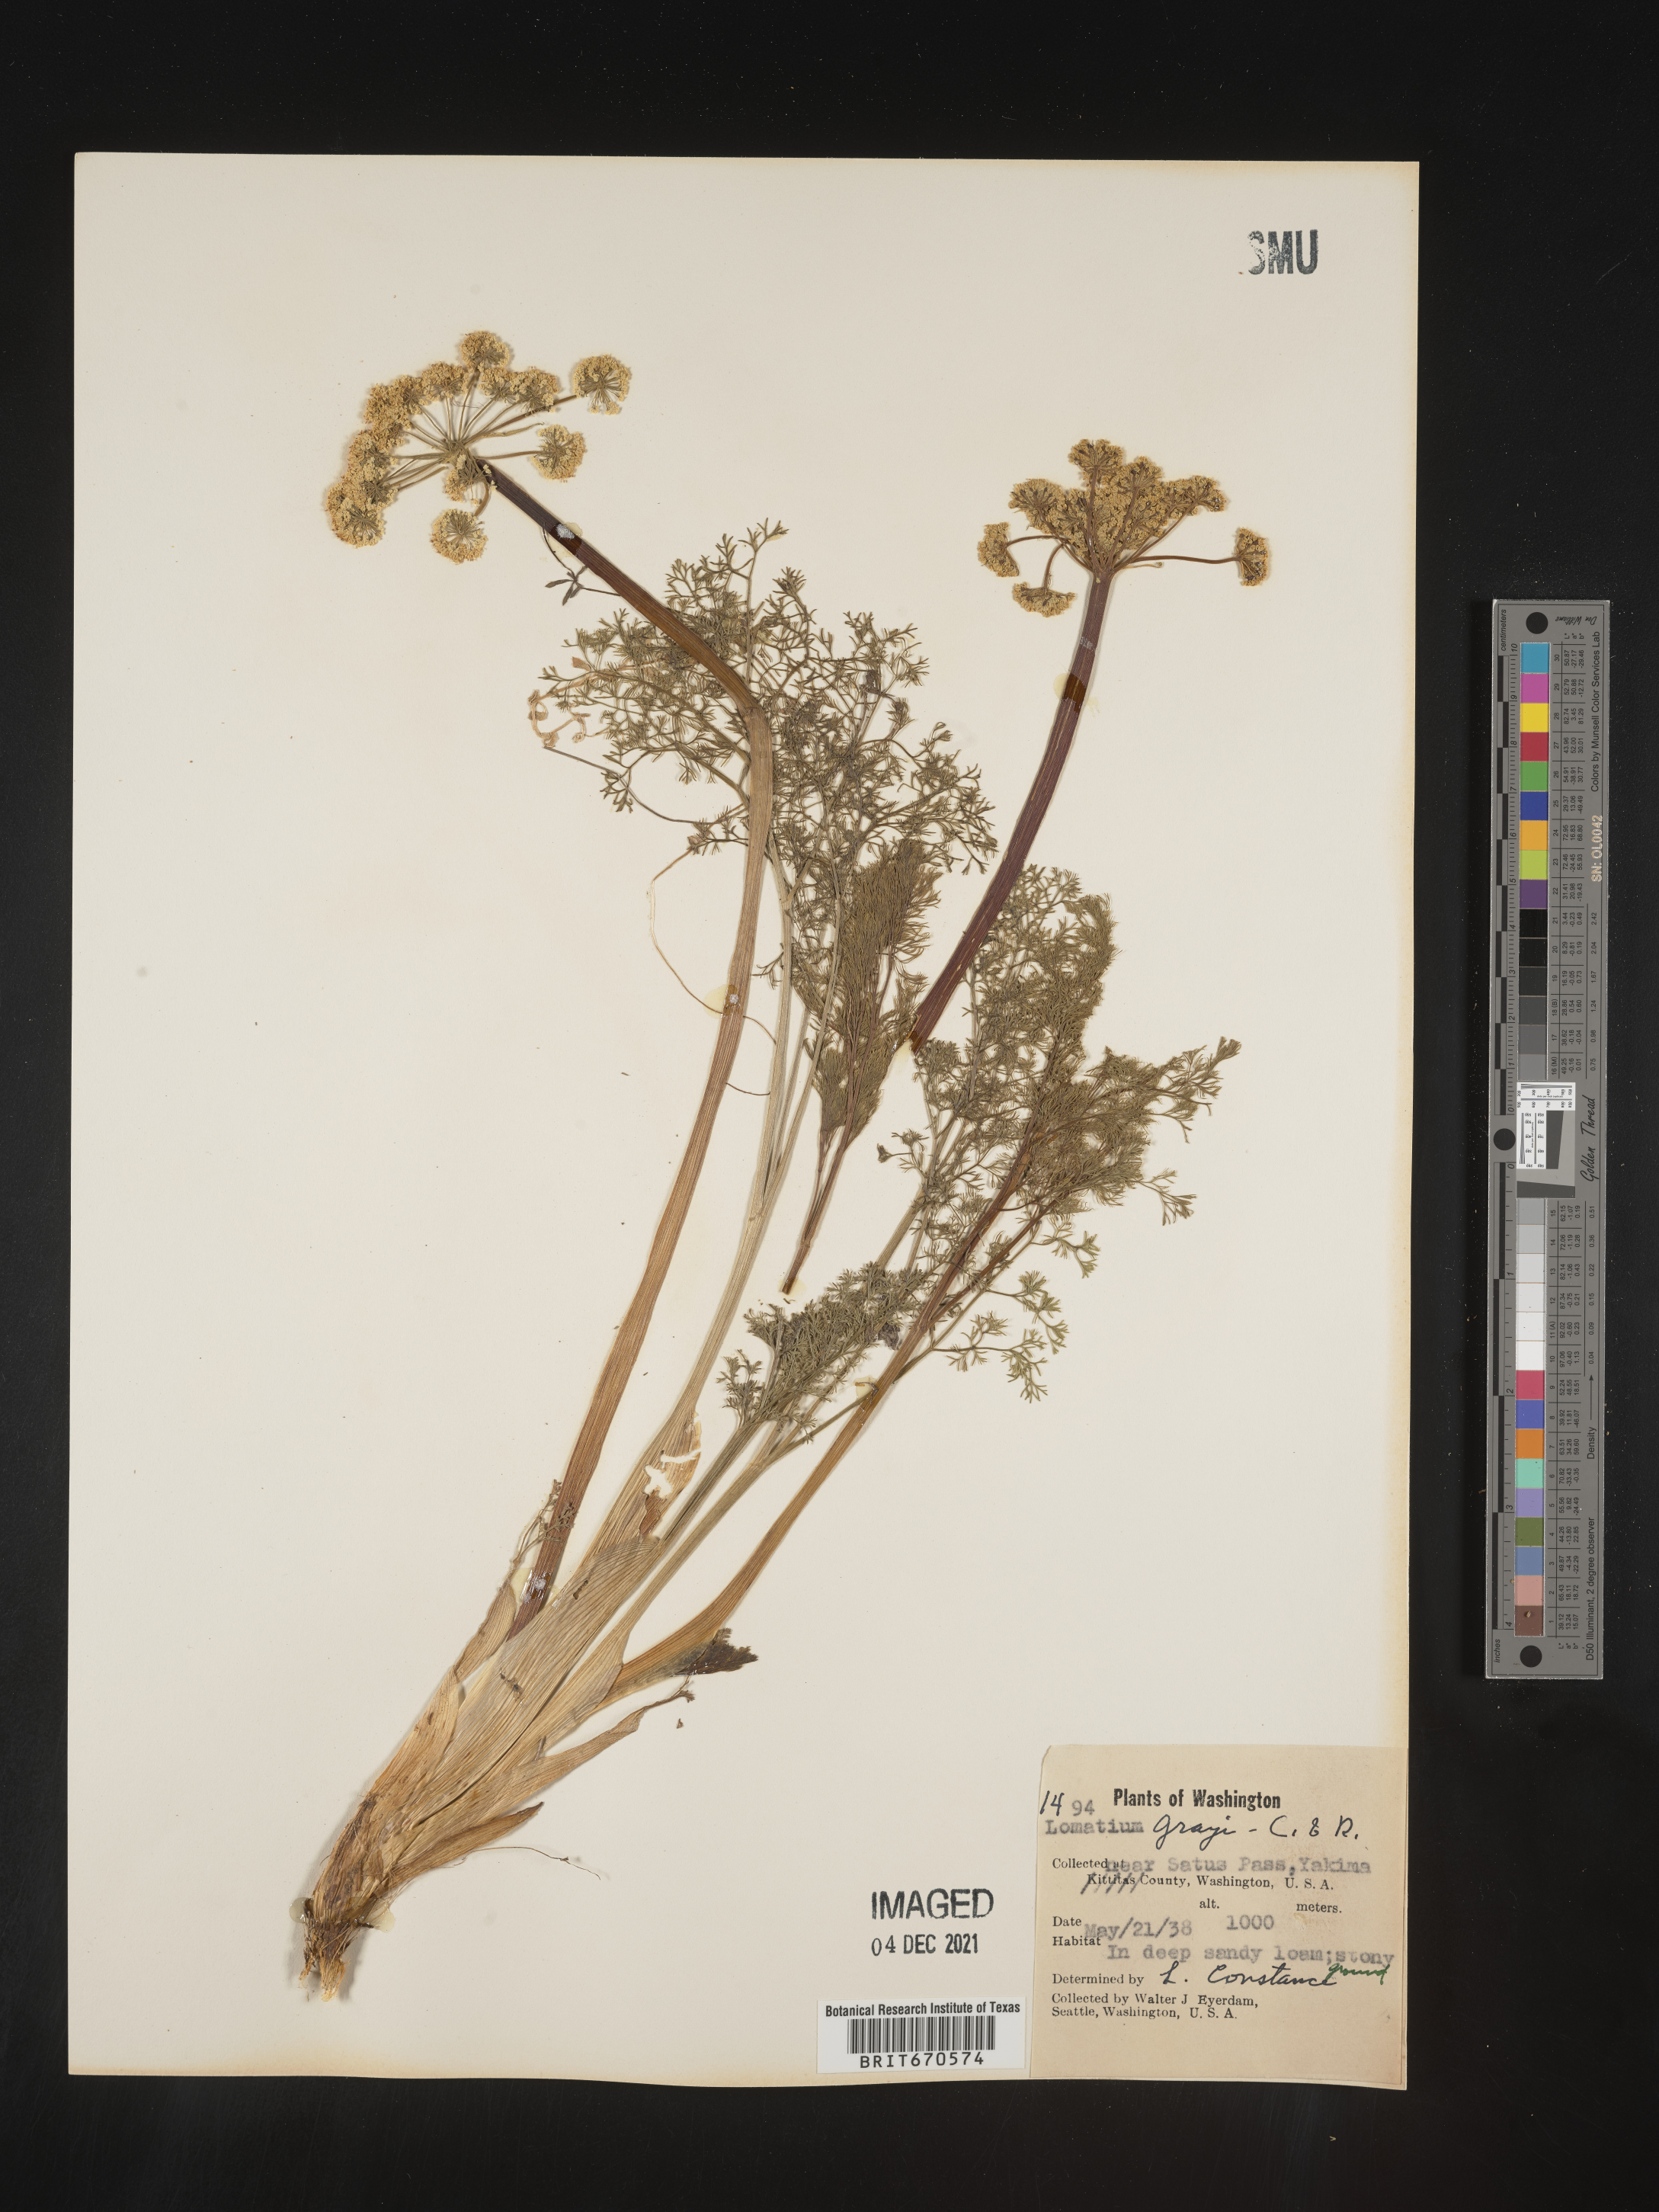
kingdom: Plantae
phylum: Tracheophyta
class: Magnoliopsida
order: Apiales
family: Apiaceae
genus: Lomatium
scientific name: Lomatium grayi
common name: Milfoil lomatium
